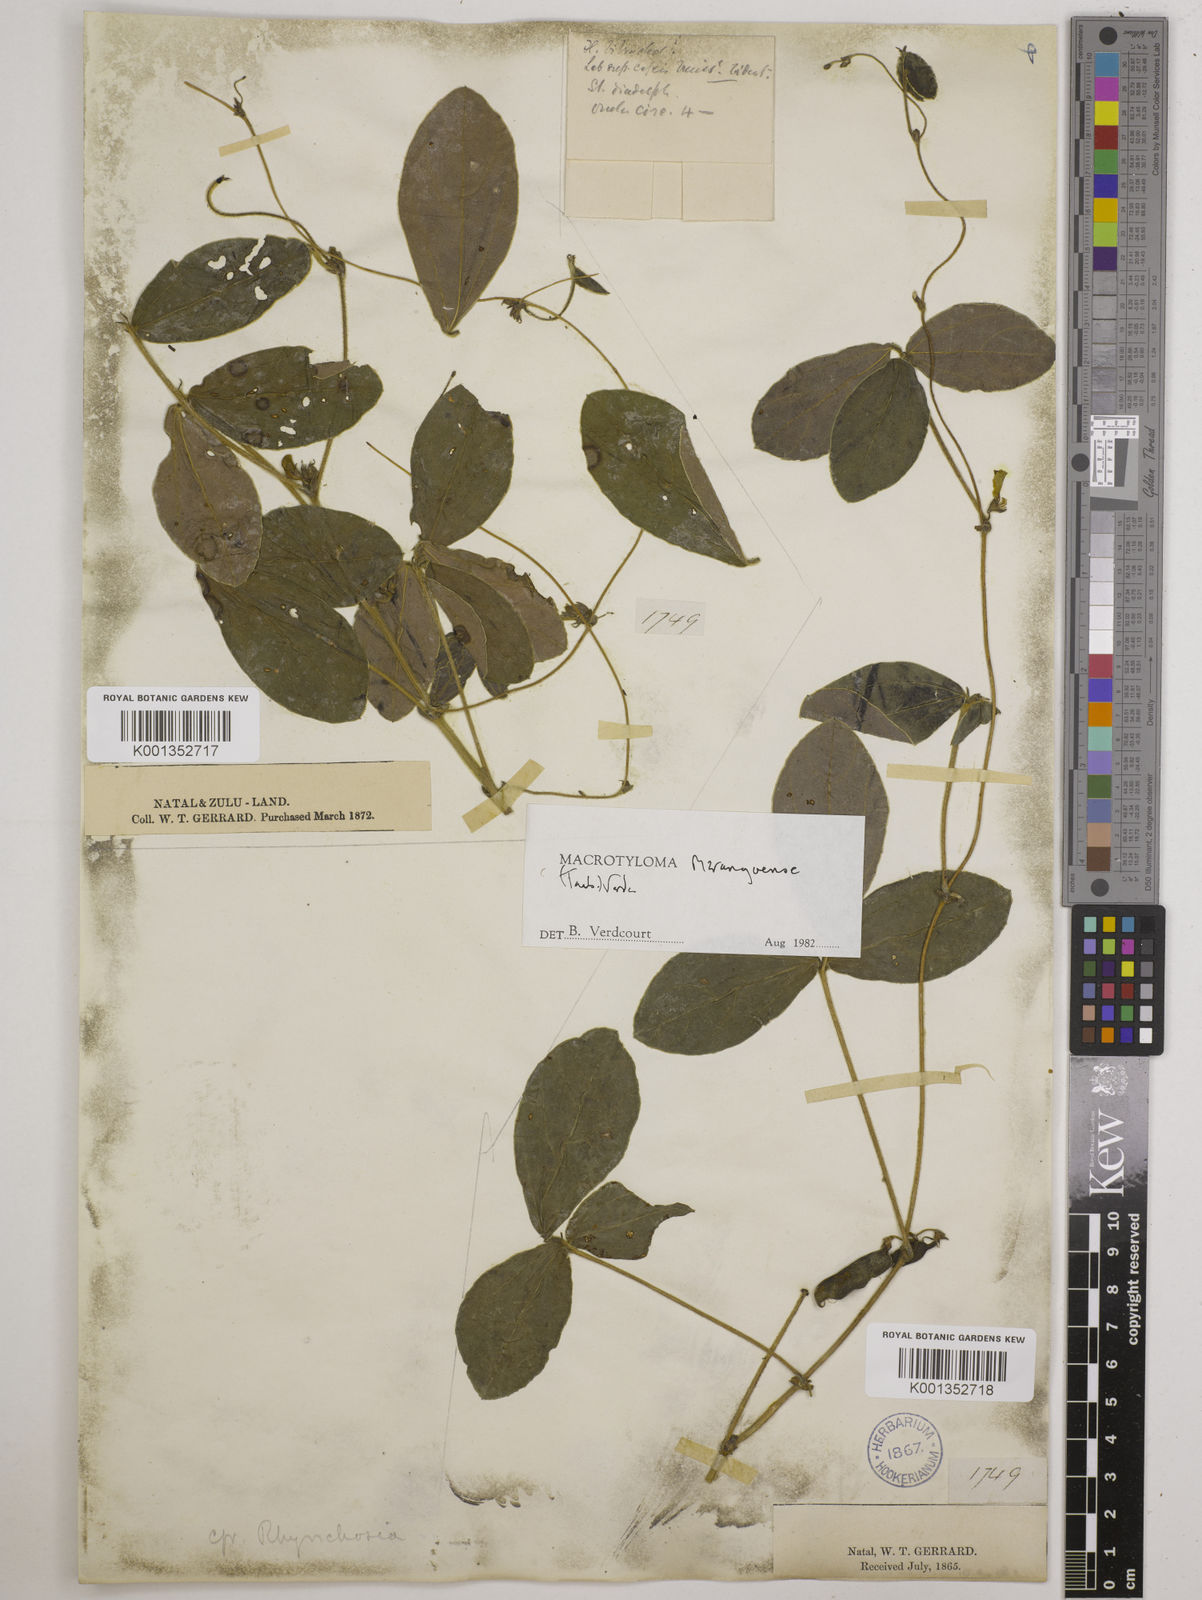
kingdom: Plantae
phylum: Tracheophyta
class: Magnoliopsida
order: Fabales
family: Fabaceae
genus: Macrotyloma
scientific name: Macrotyloma maranguense
